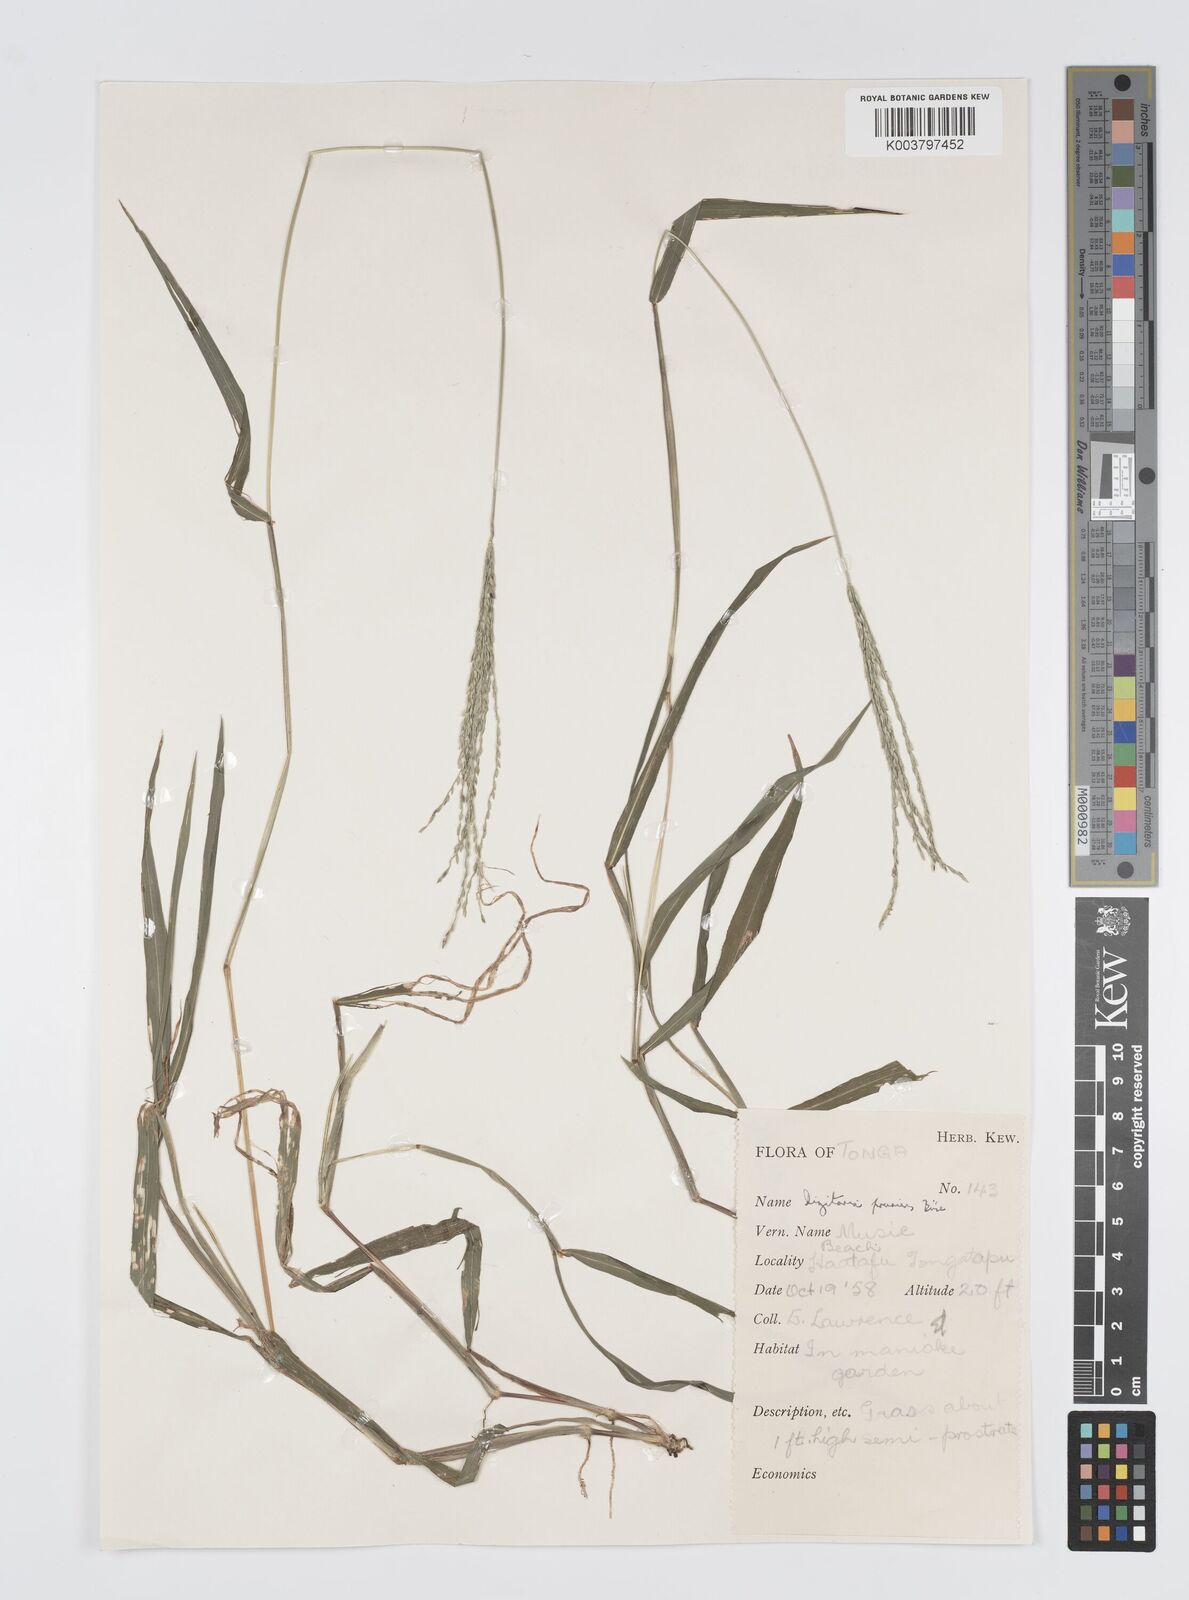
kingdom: Plantae
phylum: Tracheophyta
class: Liliopsida
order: Poales
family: Poaceae
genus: Digitaria
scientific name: Digitaria setigera
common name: East indian crabgrass
